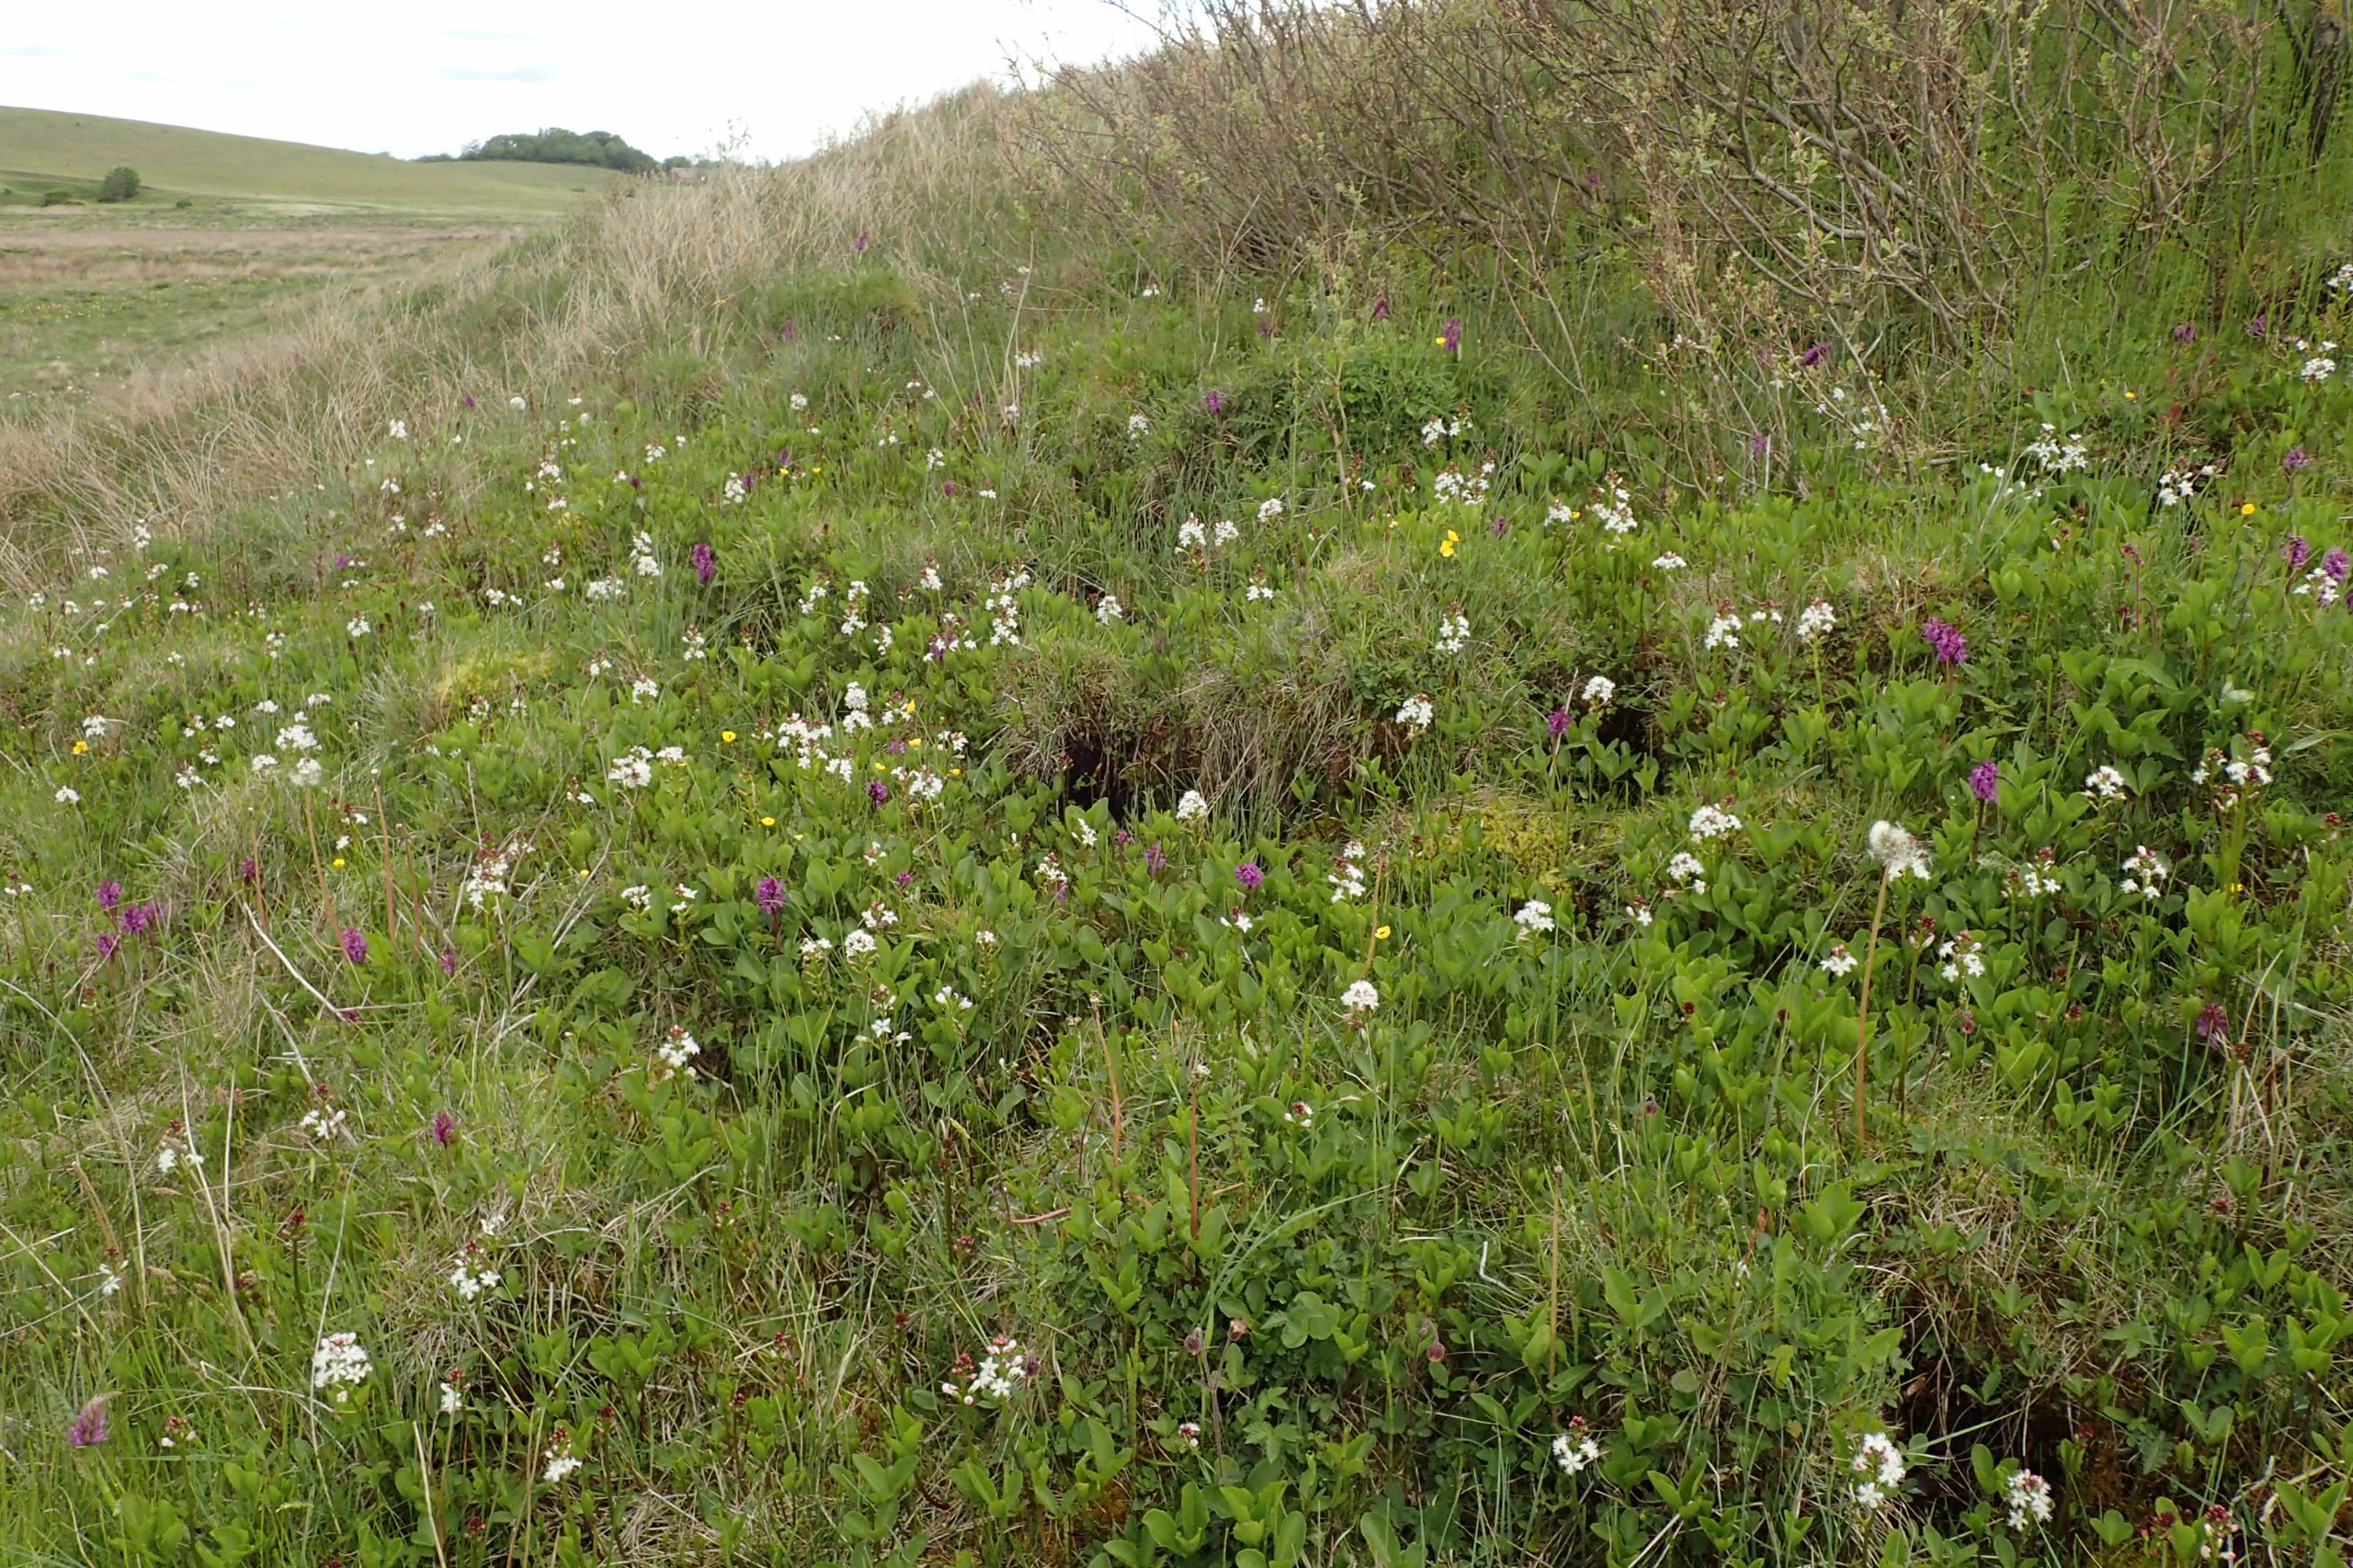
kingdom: Plantae
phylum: Tracheophyta
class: Magnoliopsida
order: Asterales
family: Menyanthaceae
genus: Menyanthes
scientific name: Menyanthes trifoliata
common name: Bukkeblad
